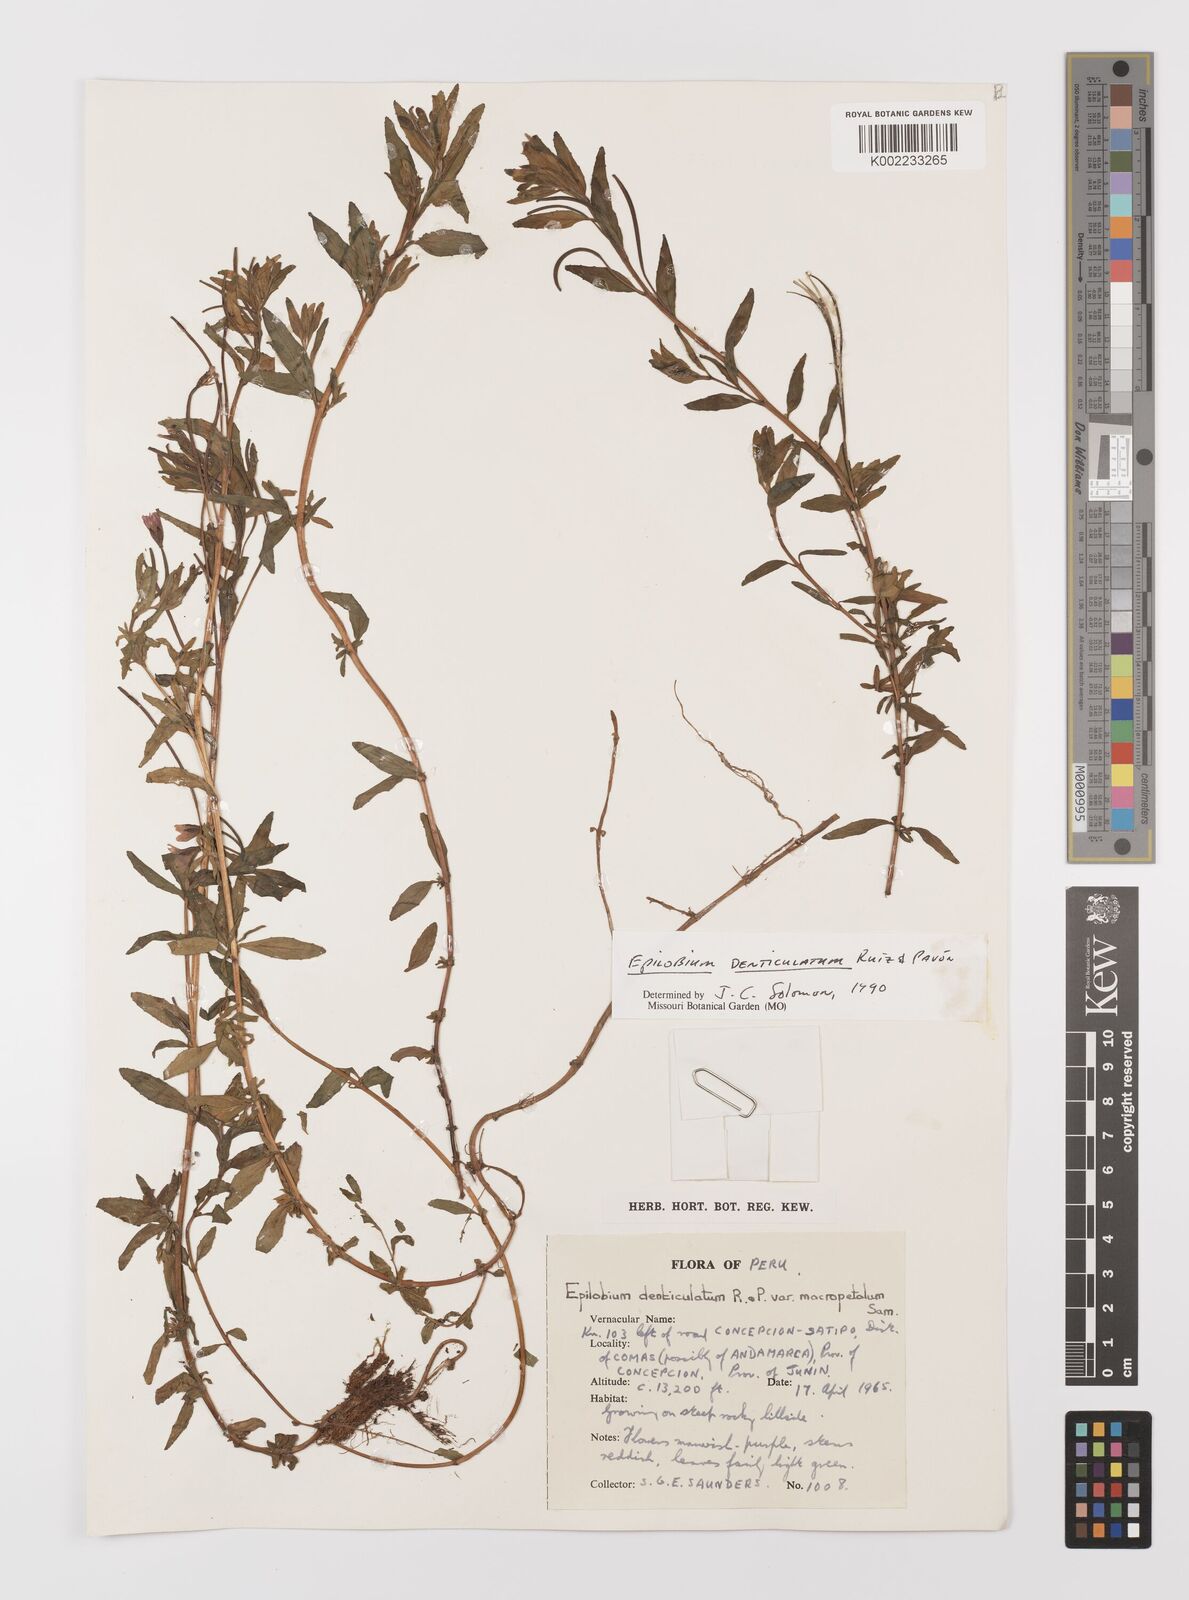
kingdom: Plantae
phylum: Tracheophyta
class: Magnoliopsida
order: Myrtales
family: Onagraceae
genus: Epilobium
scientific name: Epilobium denticulatum
